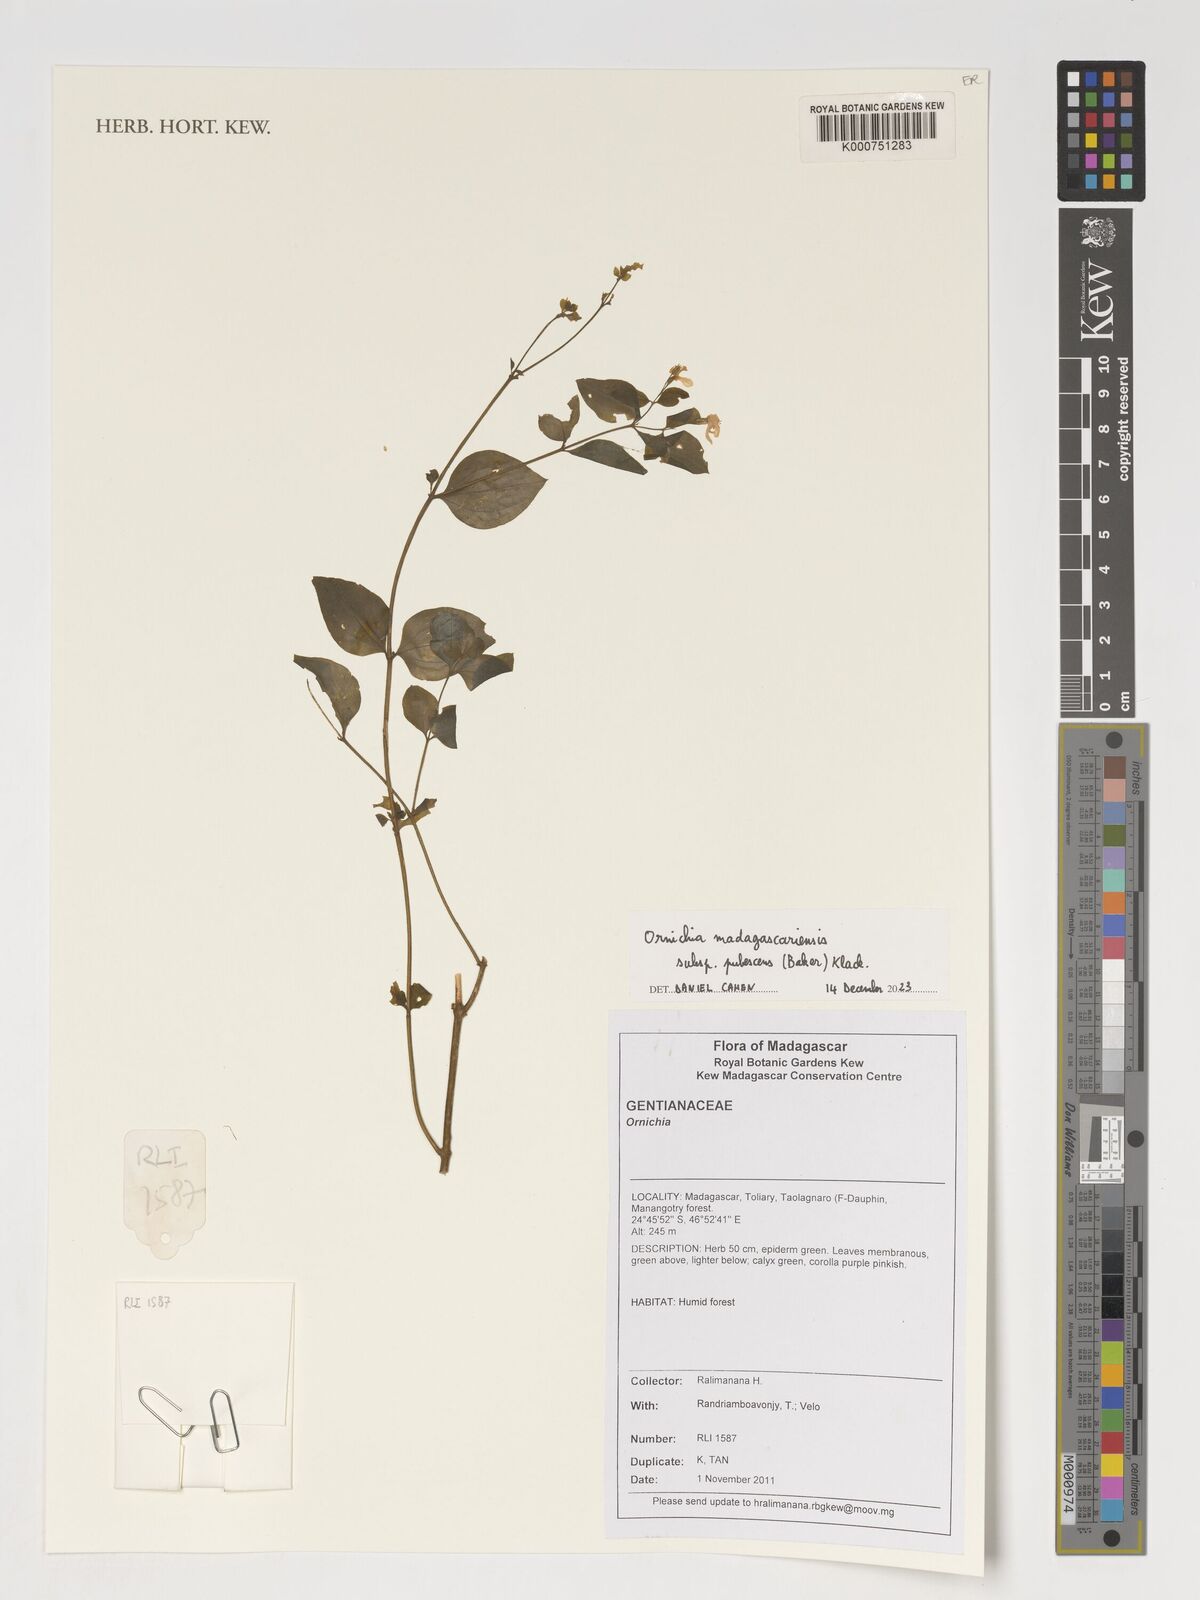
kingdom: Plantae
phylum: Tracheophyta
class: Magnoliopsida
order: Gentianales
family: Gentianaceae
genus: Ornichia
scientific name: Ornichia madagascariensis
